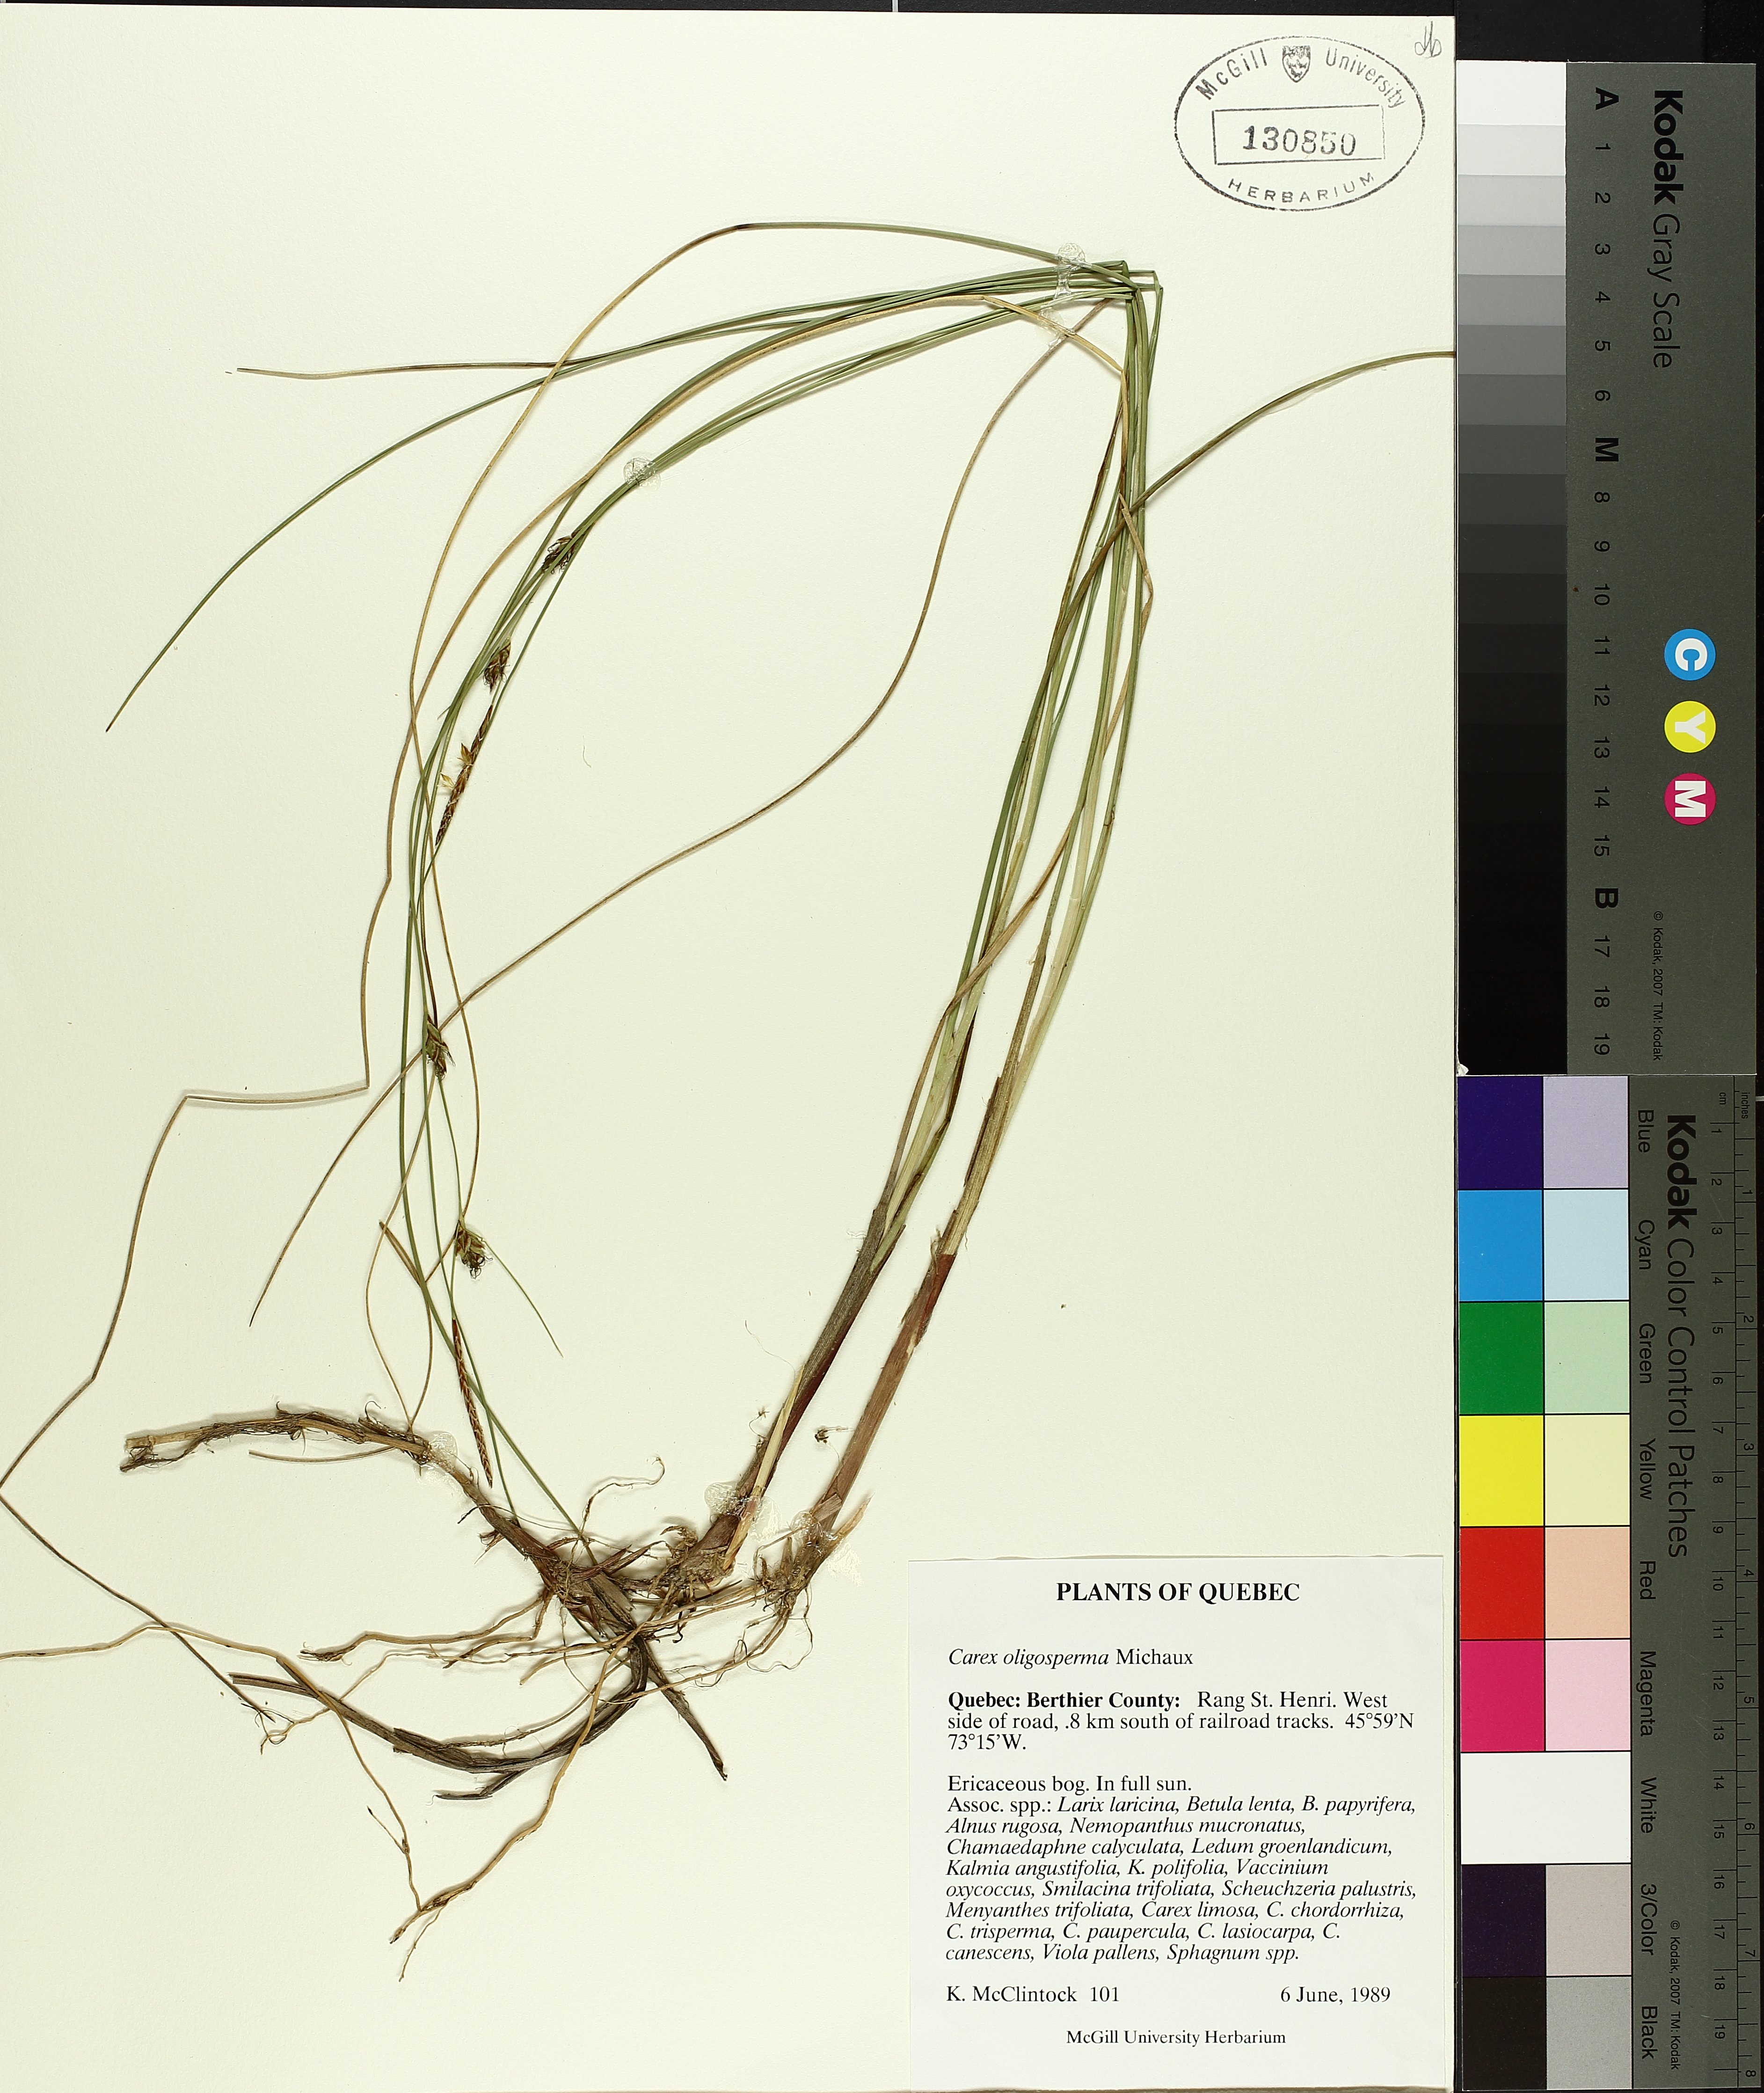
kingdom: Plantae
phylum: Tracheophyta
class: Liliopsida
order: Poales
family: Cyperaceae
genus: Carex
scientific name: Carex oligosperma
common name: Few-seed sedge
